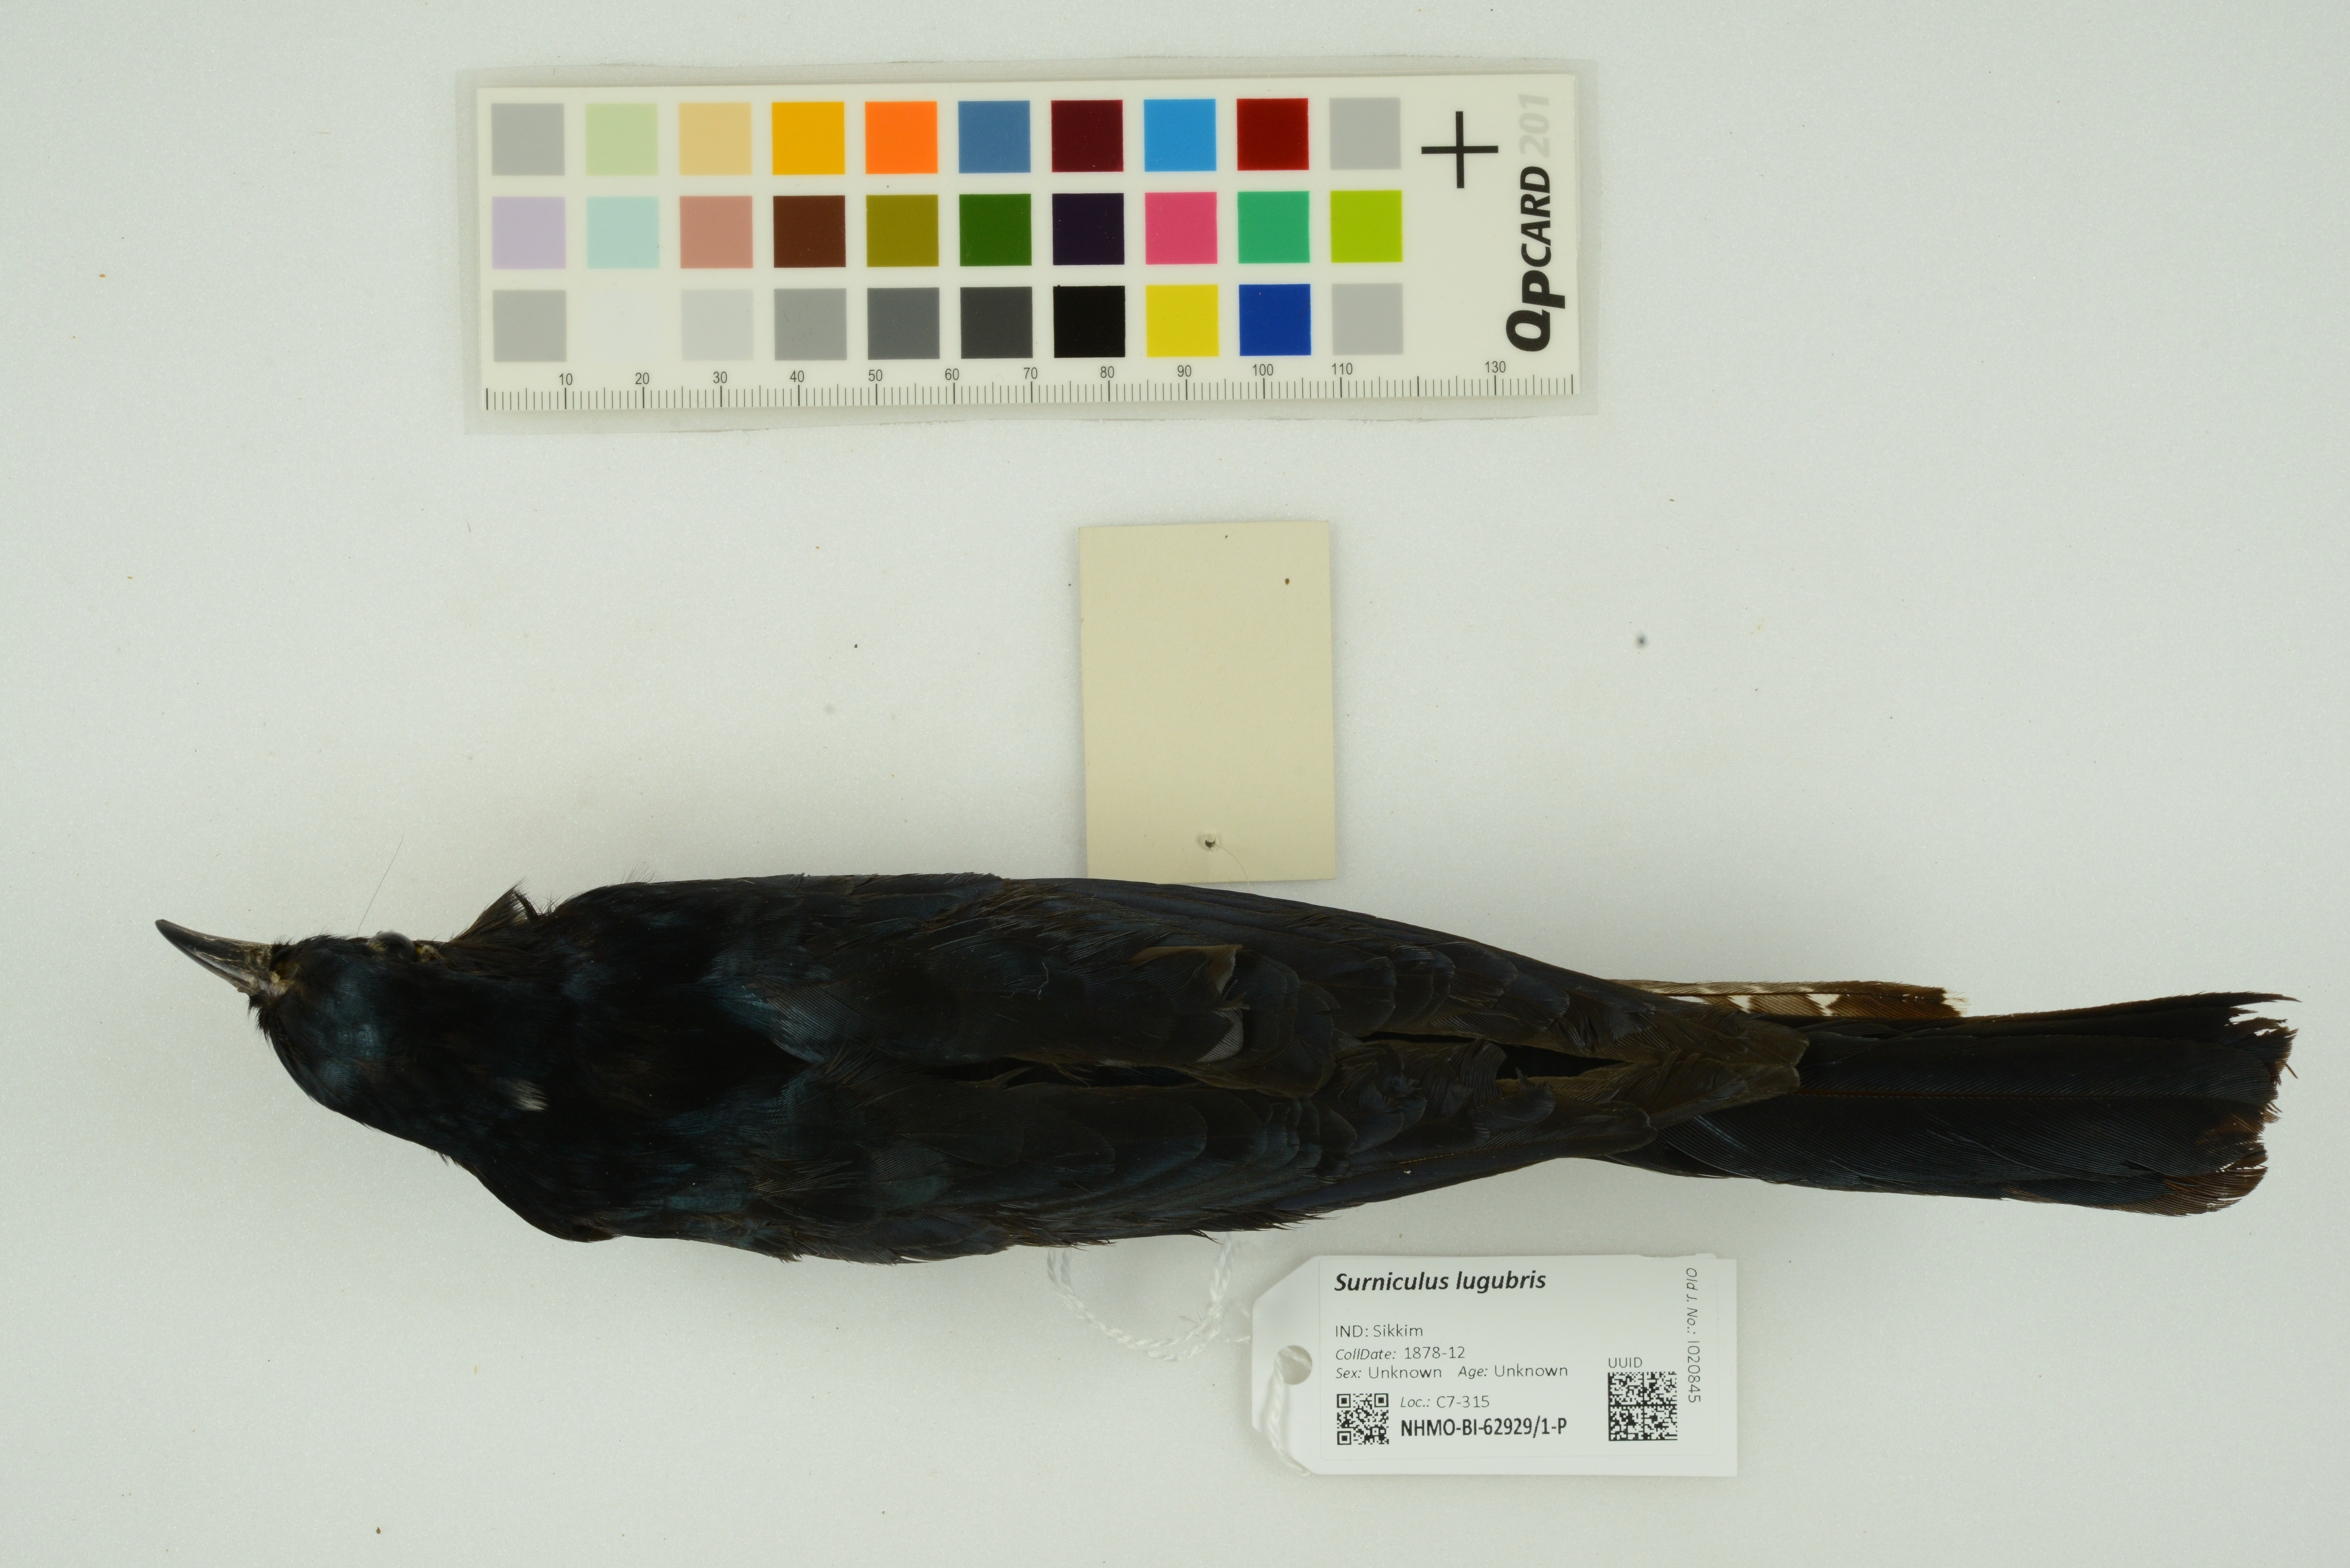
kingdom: Animalia
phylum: Chordata
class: Aves
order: Cuculiformes
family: Cuculidae
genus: Surniculus
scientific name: Surniculus lugubris
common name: Square-tailed drongo-cuckoo
